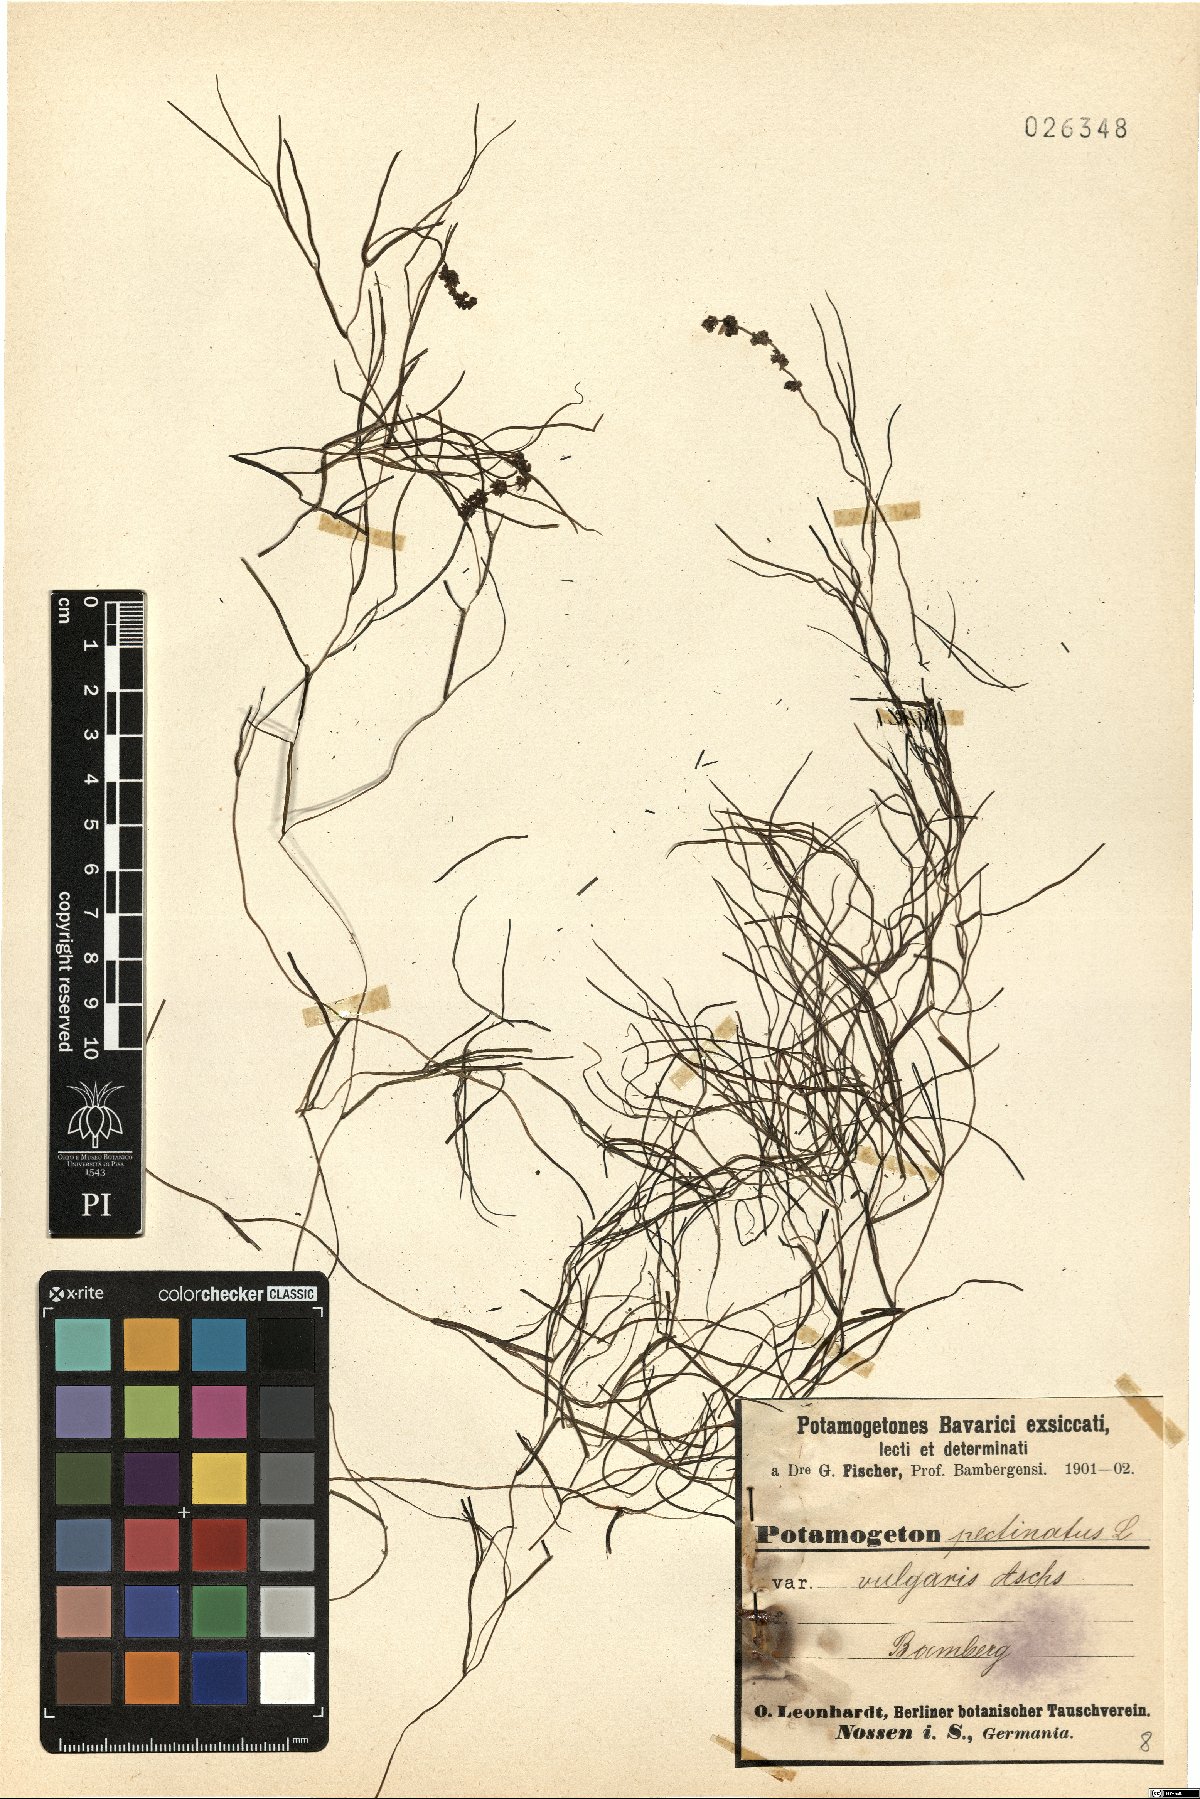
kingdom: Plantae
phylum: Tracheophyta
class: Liliopsida
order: Alismatales
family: Potamogetonaceae
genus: Stuckenia
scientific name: Stuckenia pectinata
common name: Sago pondweed
